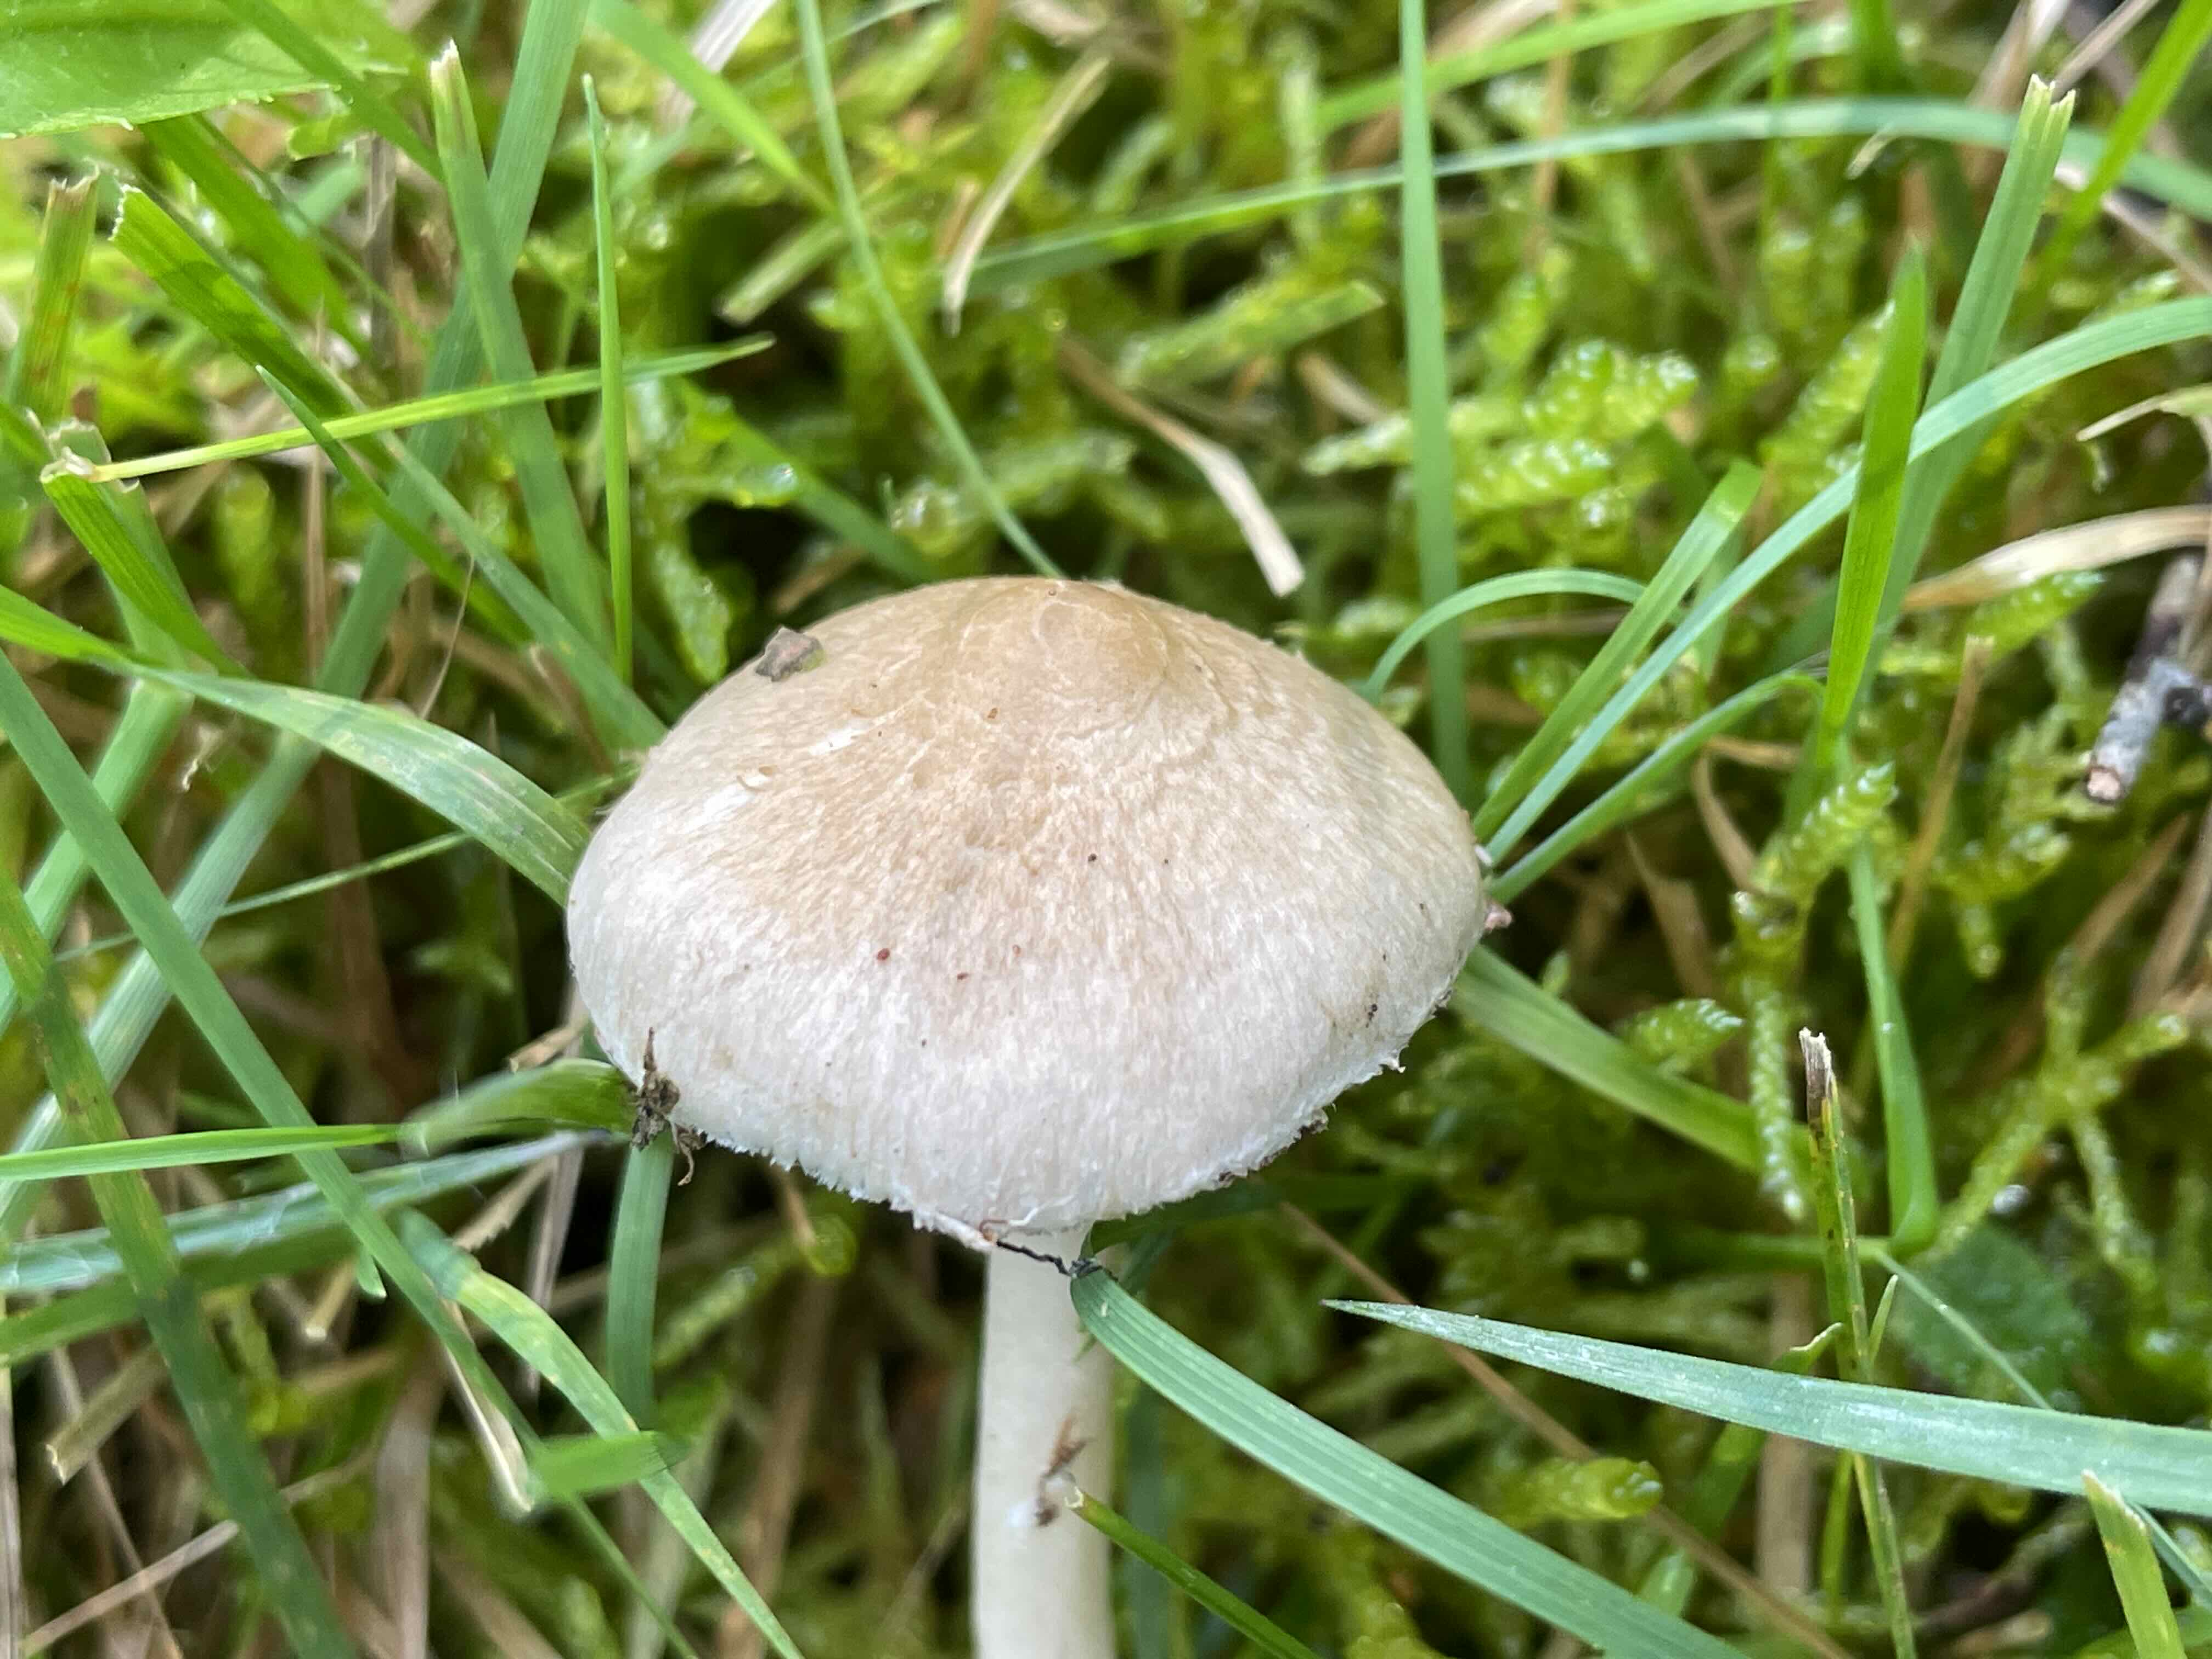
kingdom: Fungi
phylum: Basidiomycota
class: Agaricomycetes
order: Agaricales
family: Inocybaceae
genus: Inocybe
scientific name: Inocybe
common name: trævlhat
